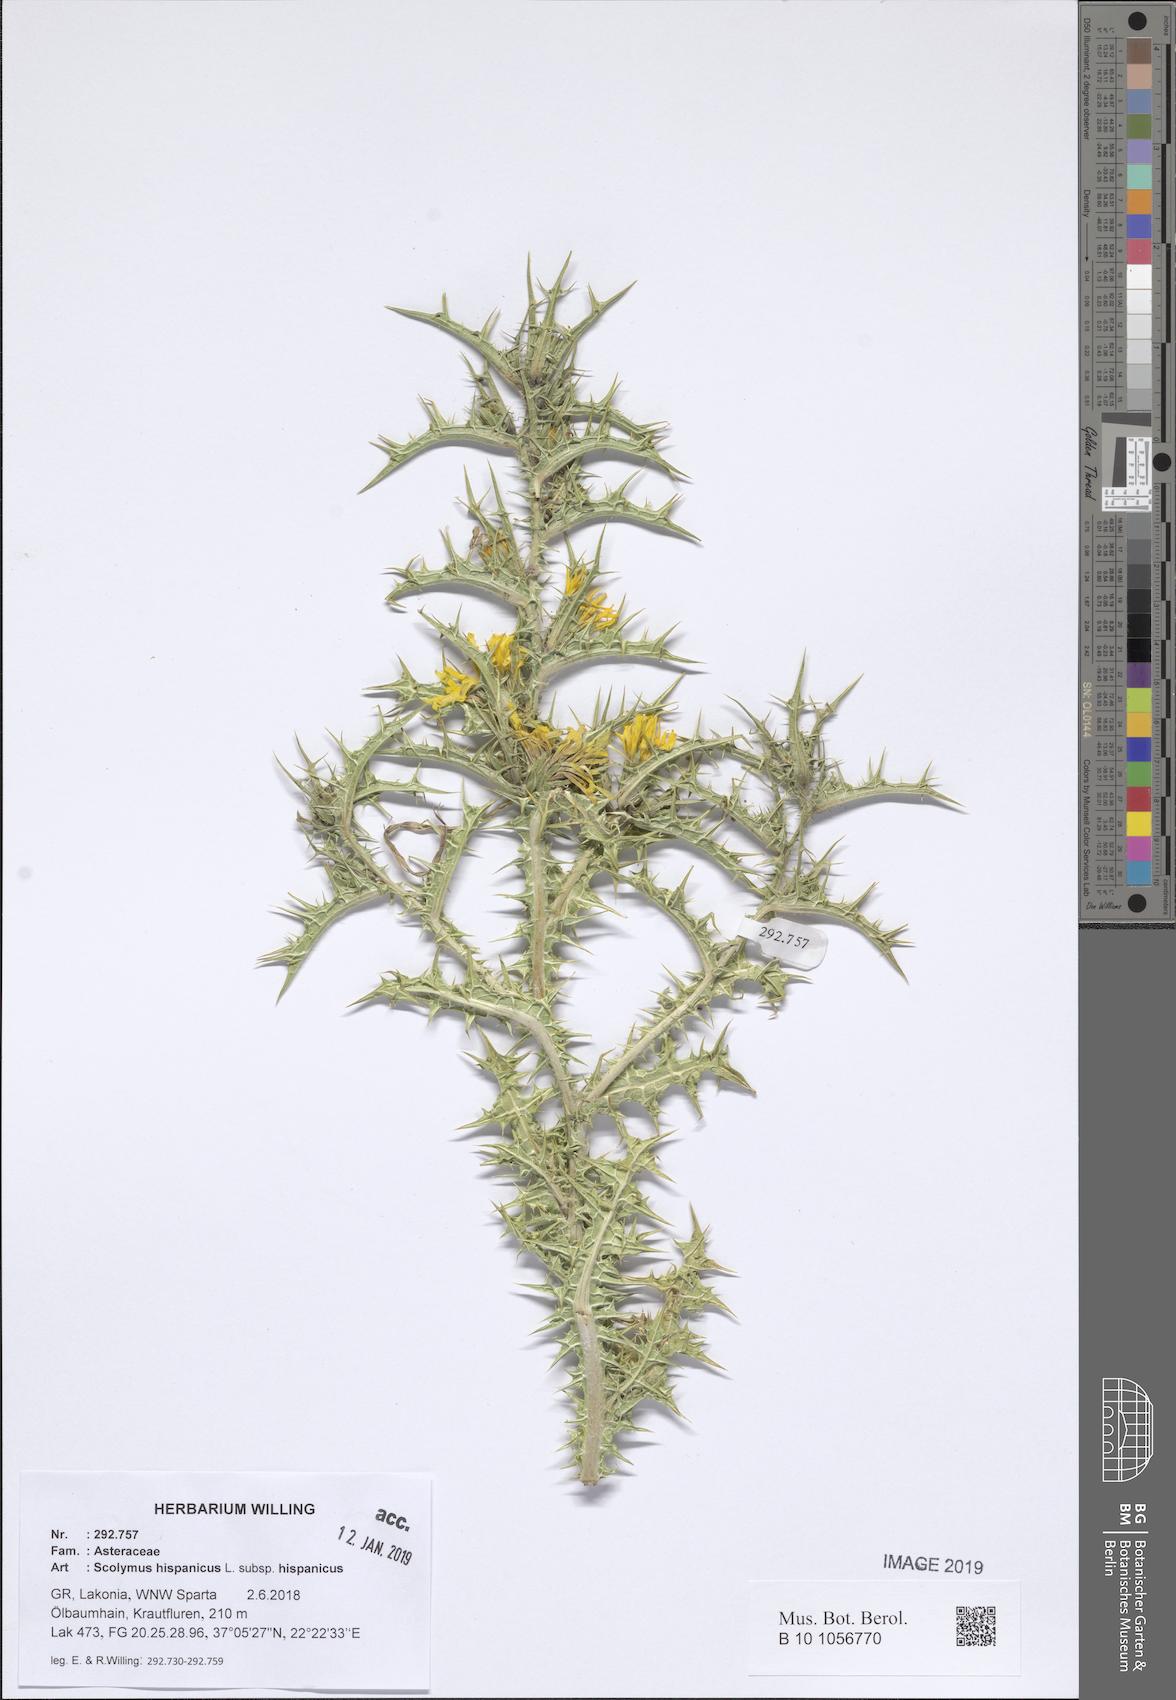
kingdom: Plantae
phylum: Tracheophyta
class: Magnoliopsida
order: Asterales
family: Asteraceae
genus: Scolymus
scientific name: Scolymus hispanicus
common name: Golden thistle
